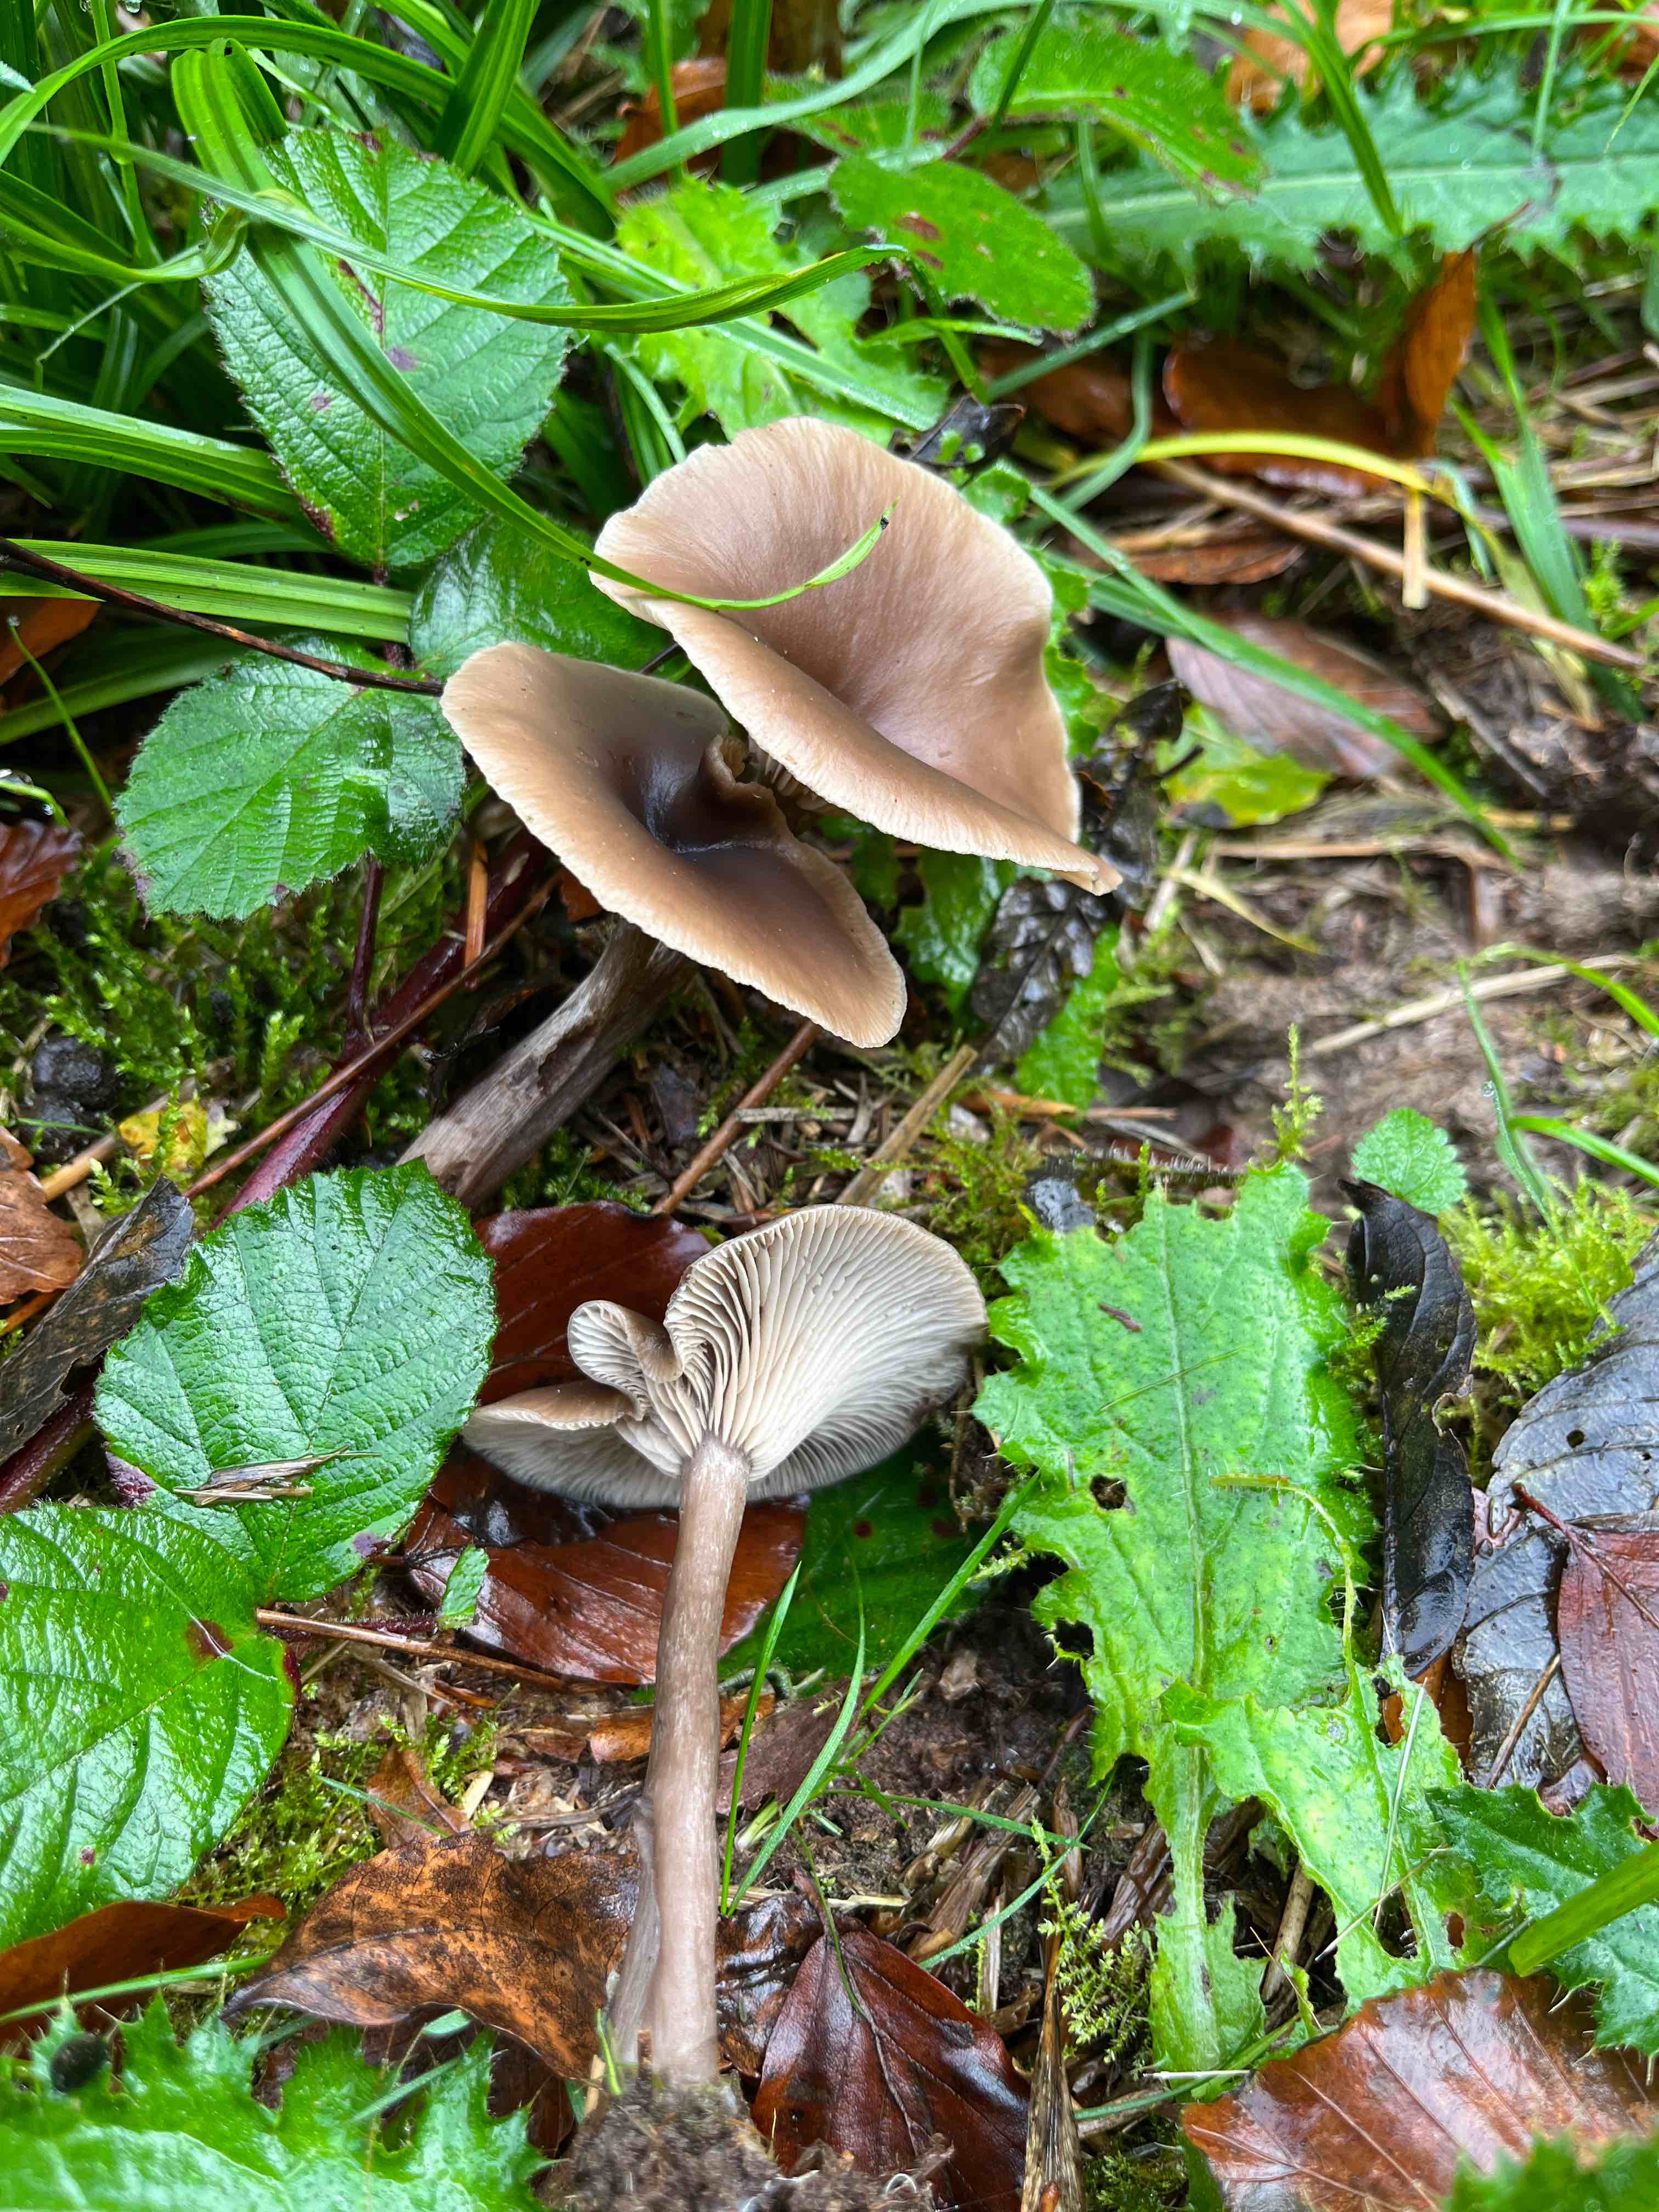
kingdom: Fungi
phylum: Basidiomycota
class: Agaricomycetes
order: Agaricales
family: Pseudoclitocybaceae
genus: Pseudoclitocybe
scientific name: Pseudoclitocybe cyathiformis
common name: almindelig bægertragthat
